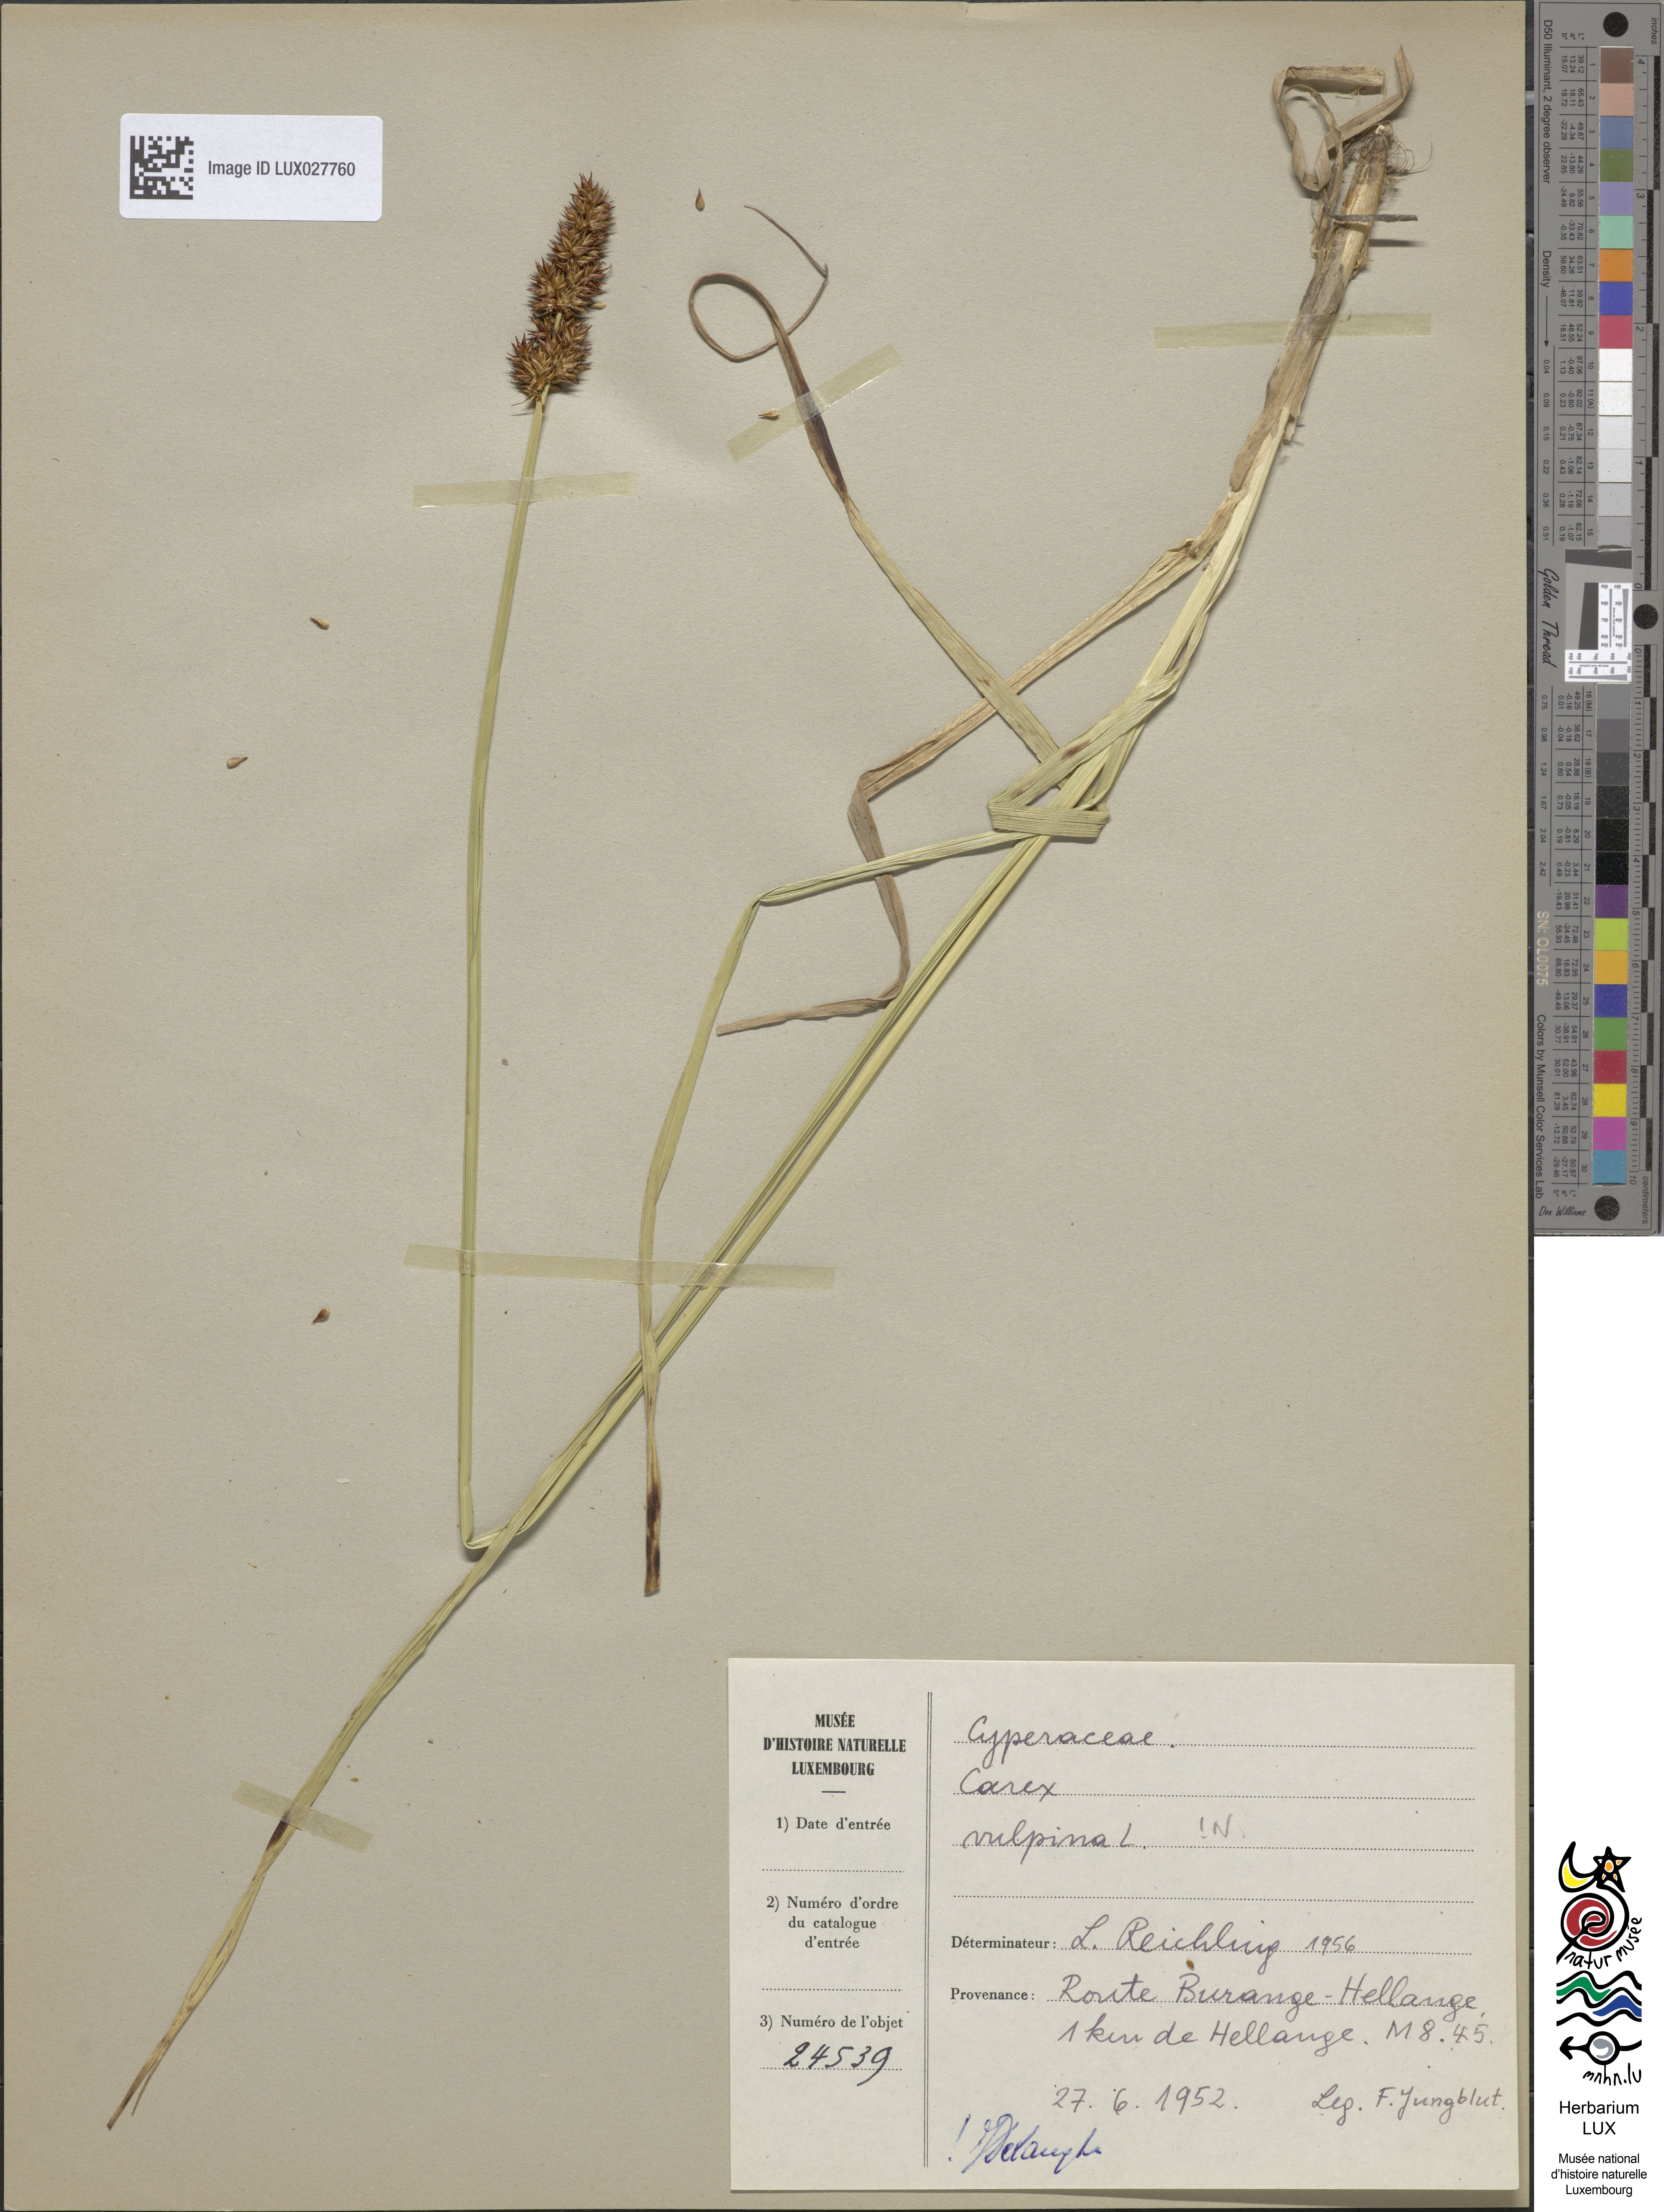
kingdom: Plantae
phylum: Tracheophyta
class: Liliopsida
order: Poales
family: Cyperaceae
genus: Carex
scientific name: Carex vulpina
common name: True fox-sedge
